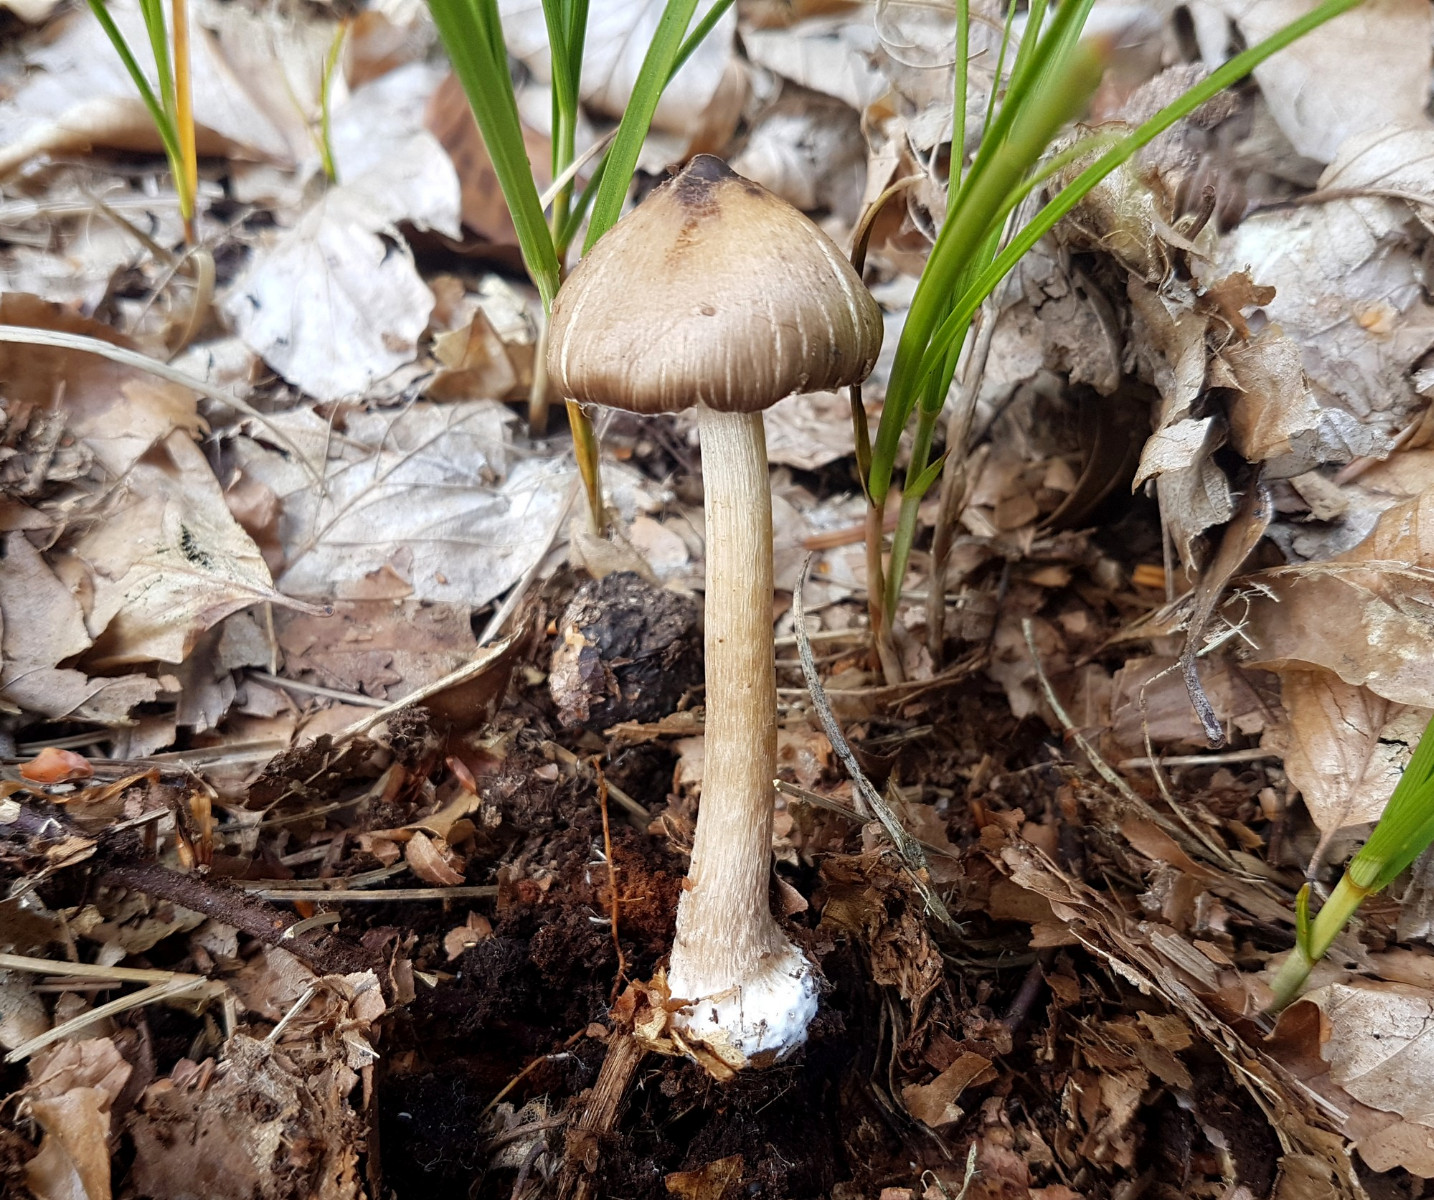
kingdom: Fungi
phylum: Basidiomycota
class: Agaricomycetes
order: Agaricales
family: Inocybaceae
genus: Inocybe
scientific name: Inocybe napipes
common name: roeknoldet trævlhat
